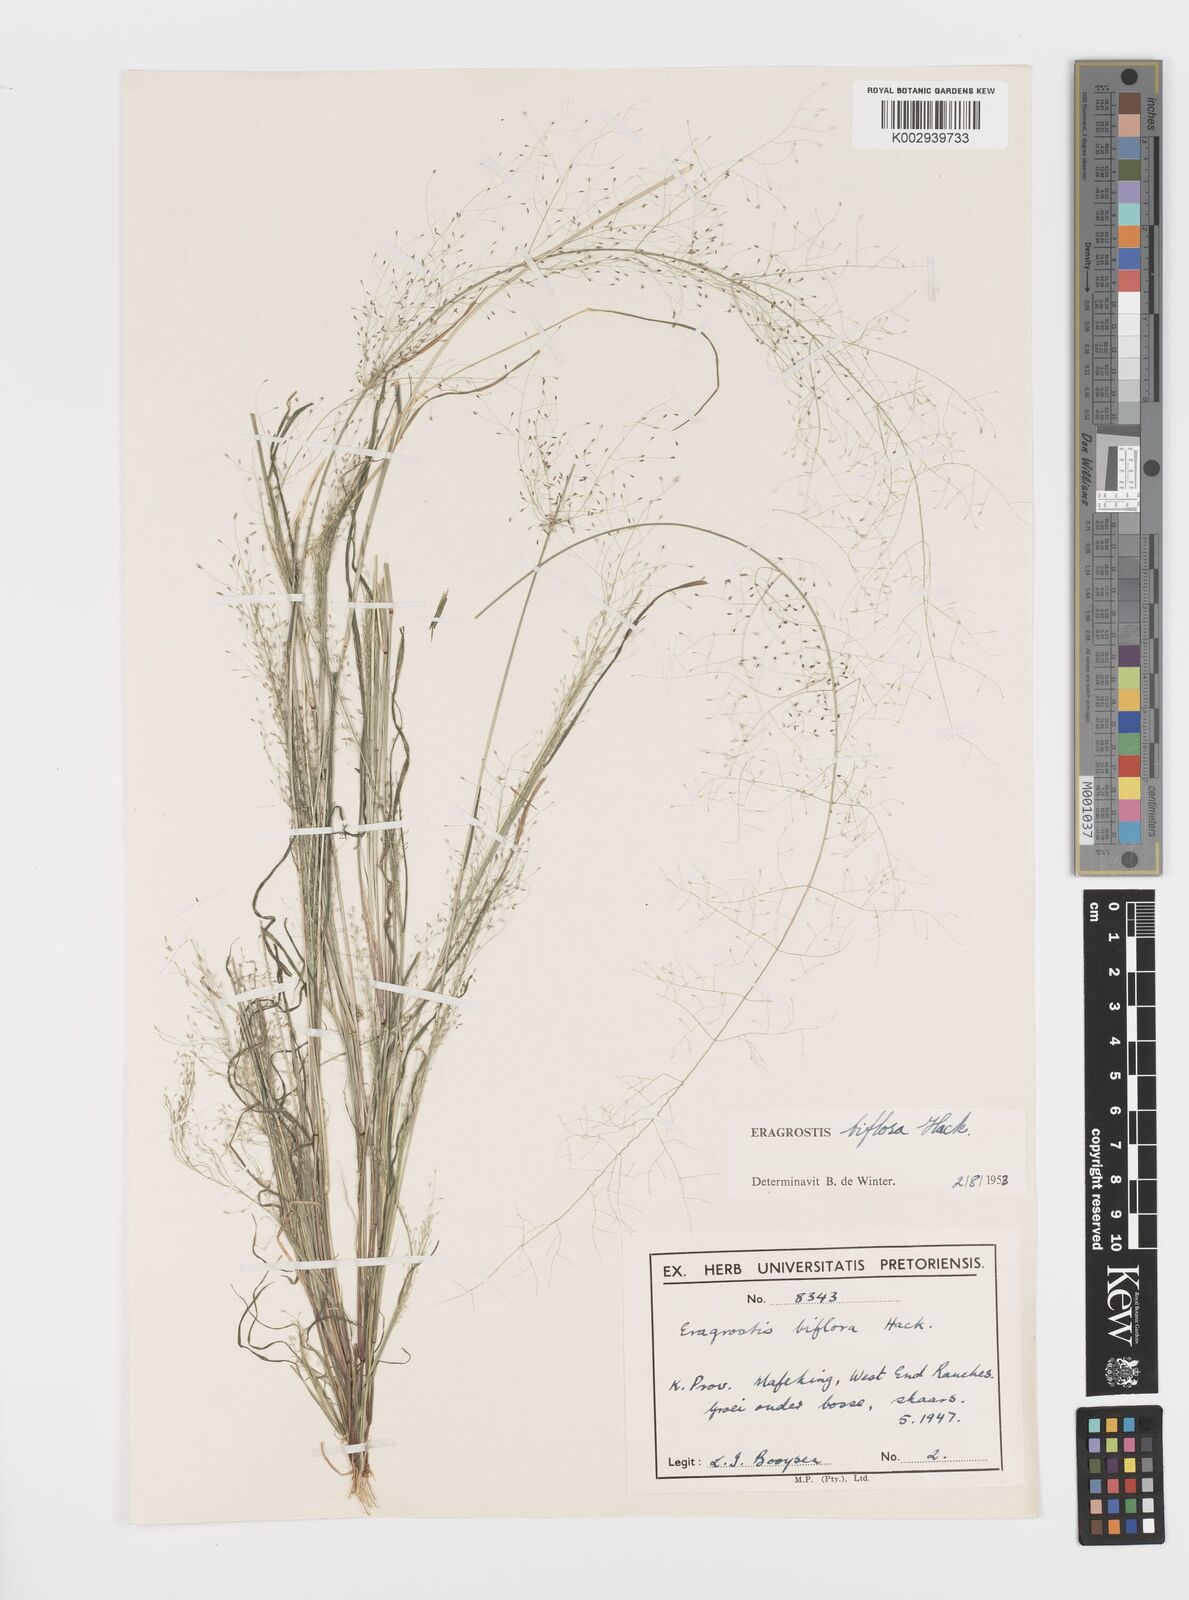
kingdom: Plantae
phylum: Tracheophyta
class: Liliopsida
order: Poales
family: Poaceae
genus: Eragrostis
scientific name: Eragrostis biflora
